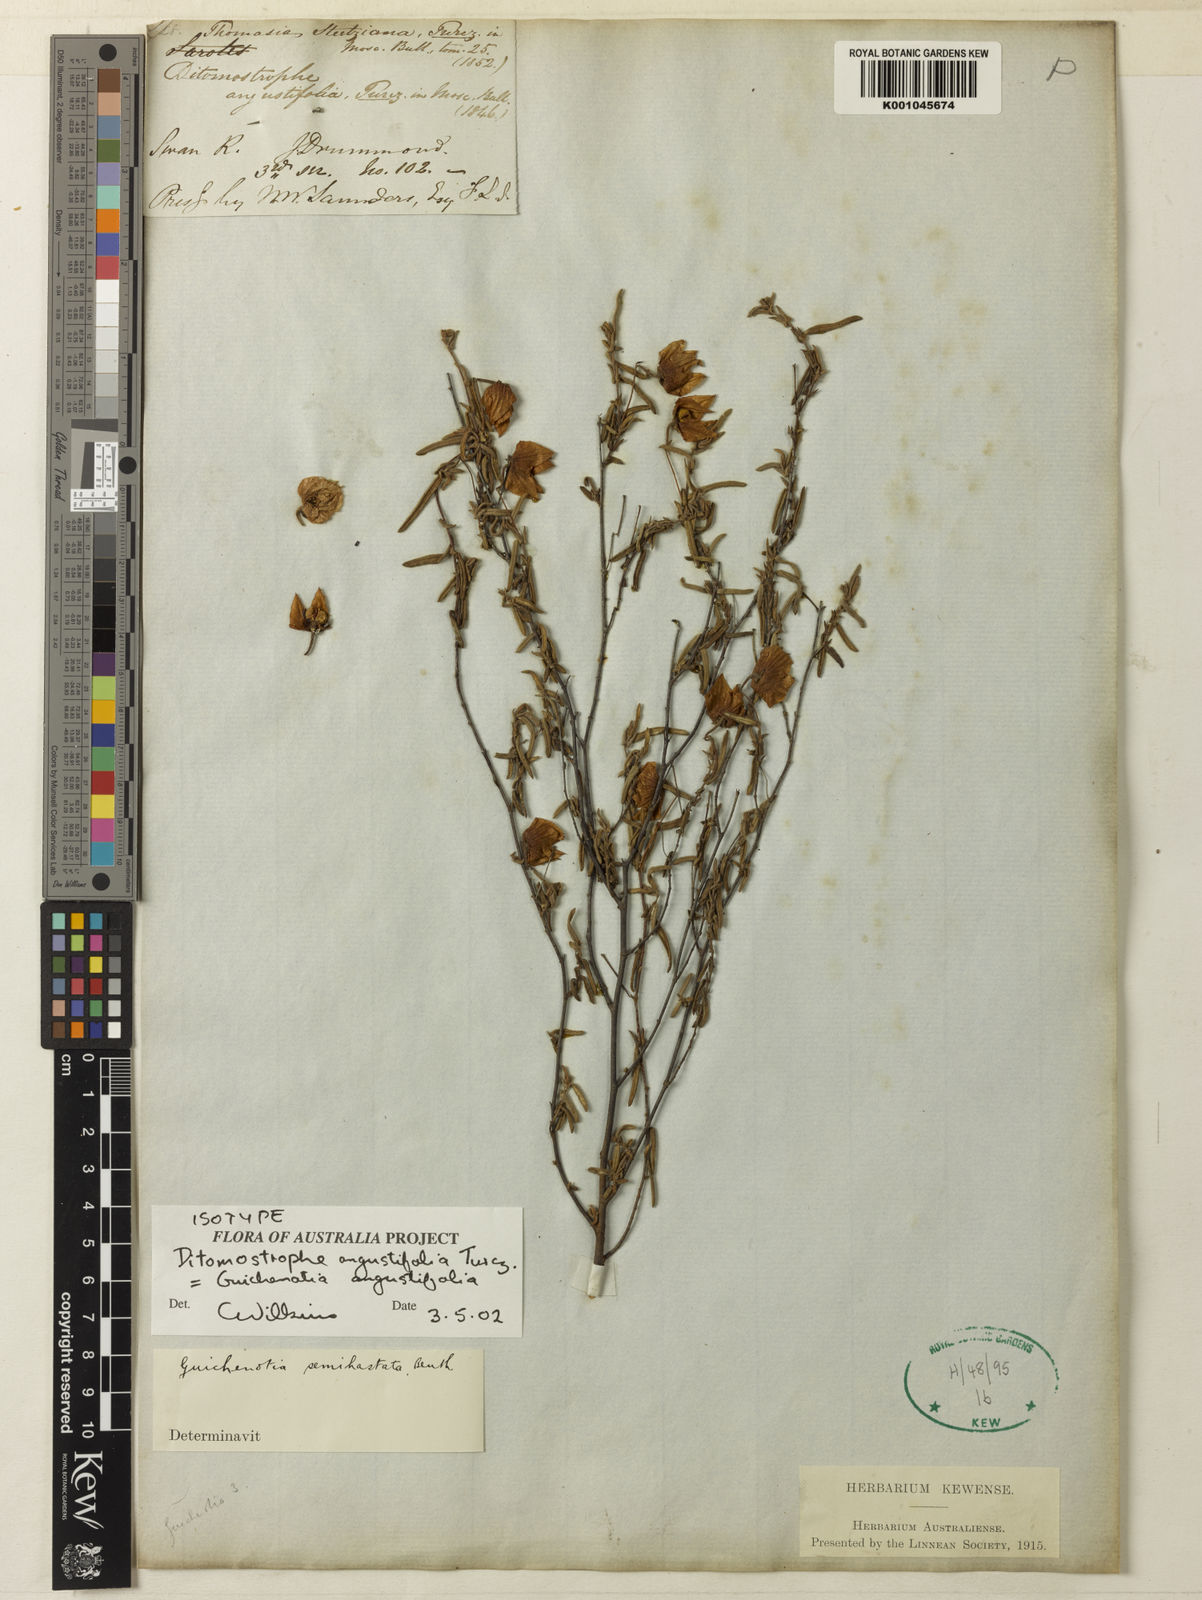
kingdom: Plantae
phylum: Tracheophyta
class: Magnoliopsida
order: Malvales
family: Malvaceae
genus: Guichenotia
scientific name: Guichenotia angustifolia
